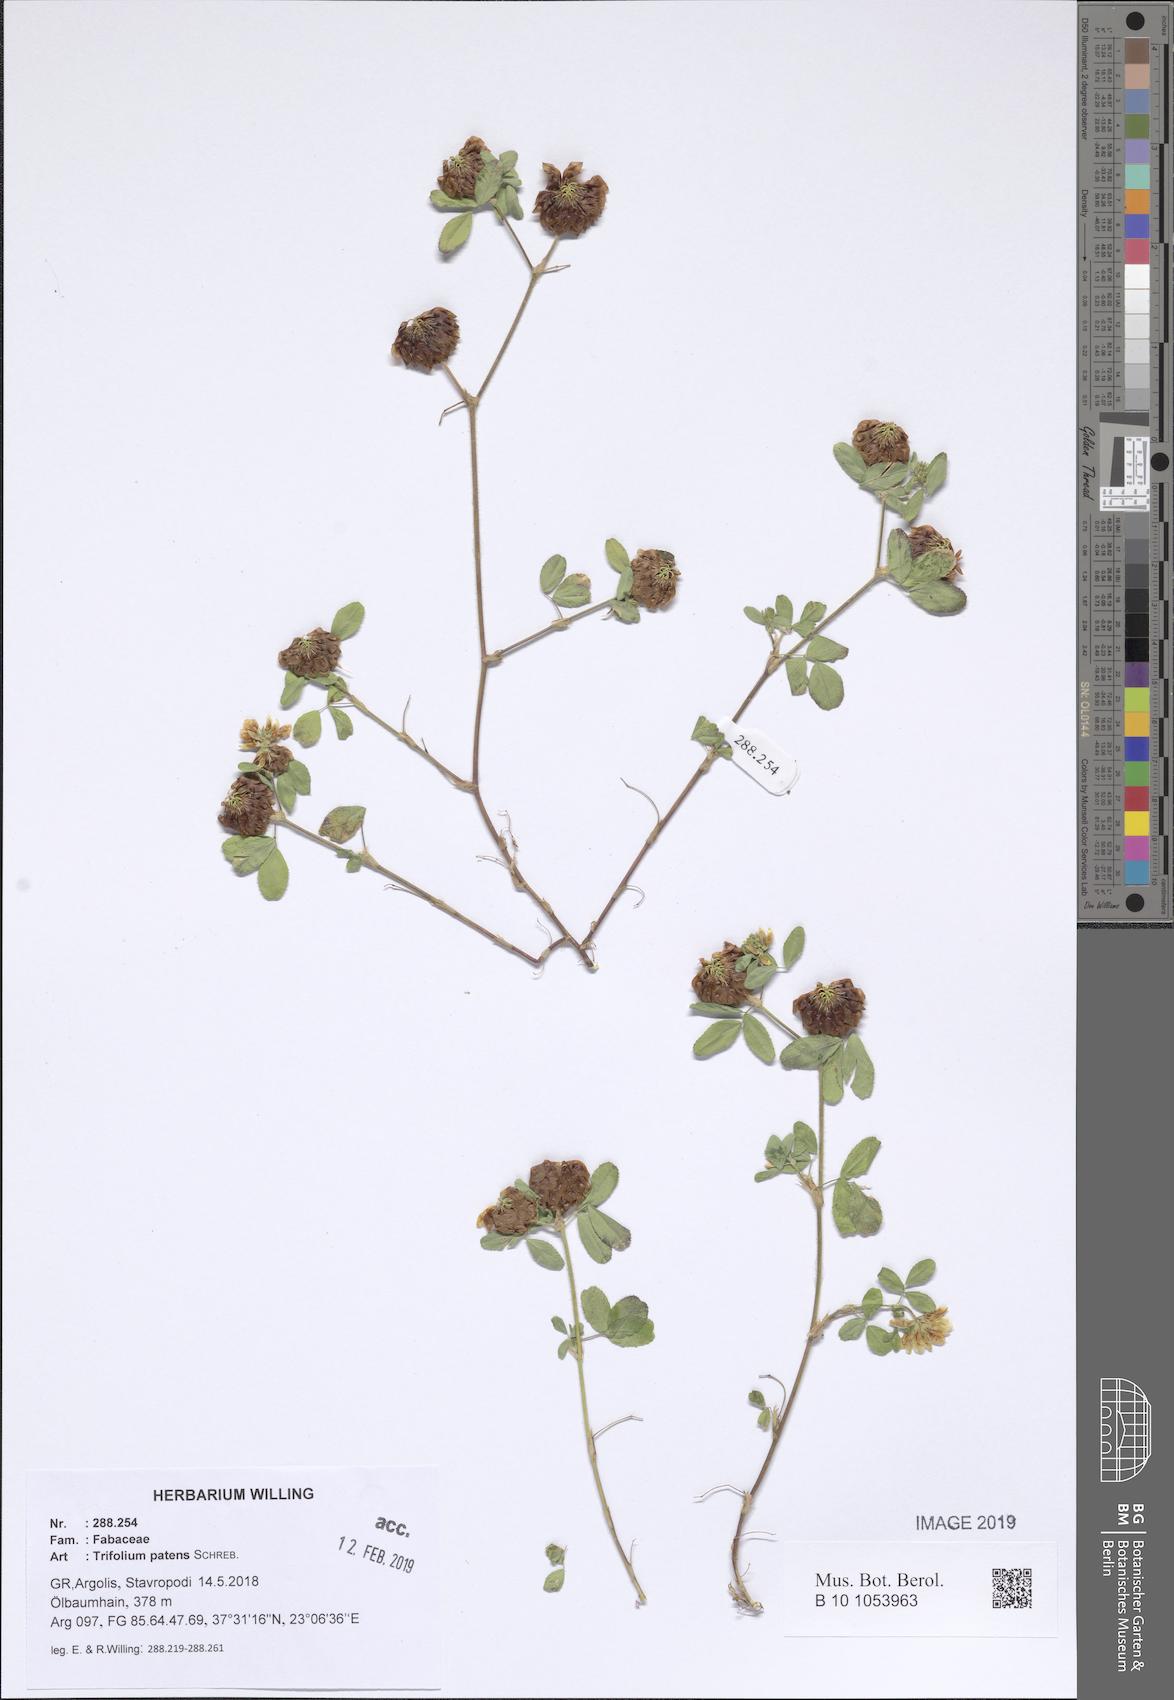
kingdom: Plantae
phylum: Tracheophyta
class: Magnoliopsida
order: Fabales
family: Fabaceae
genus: Trifolium
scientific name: Trifolium patens
